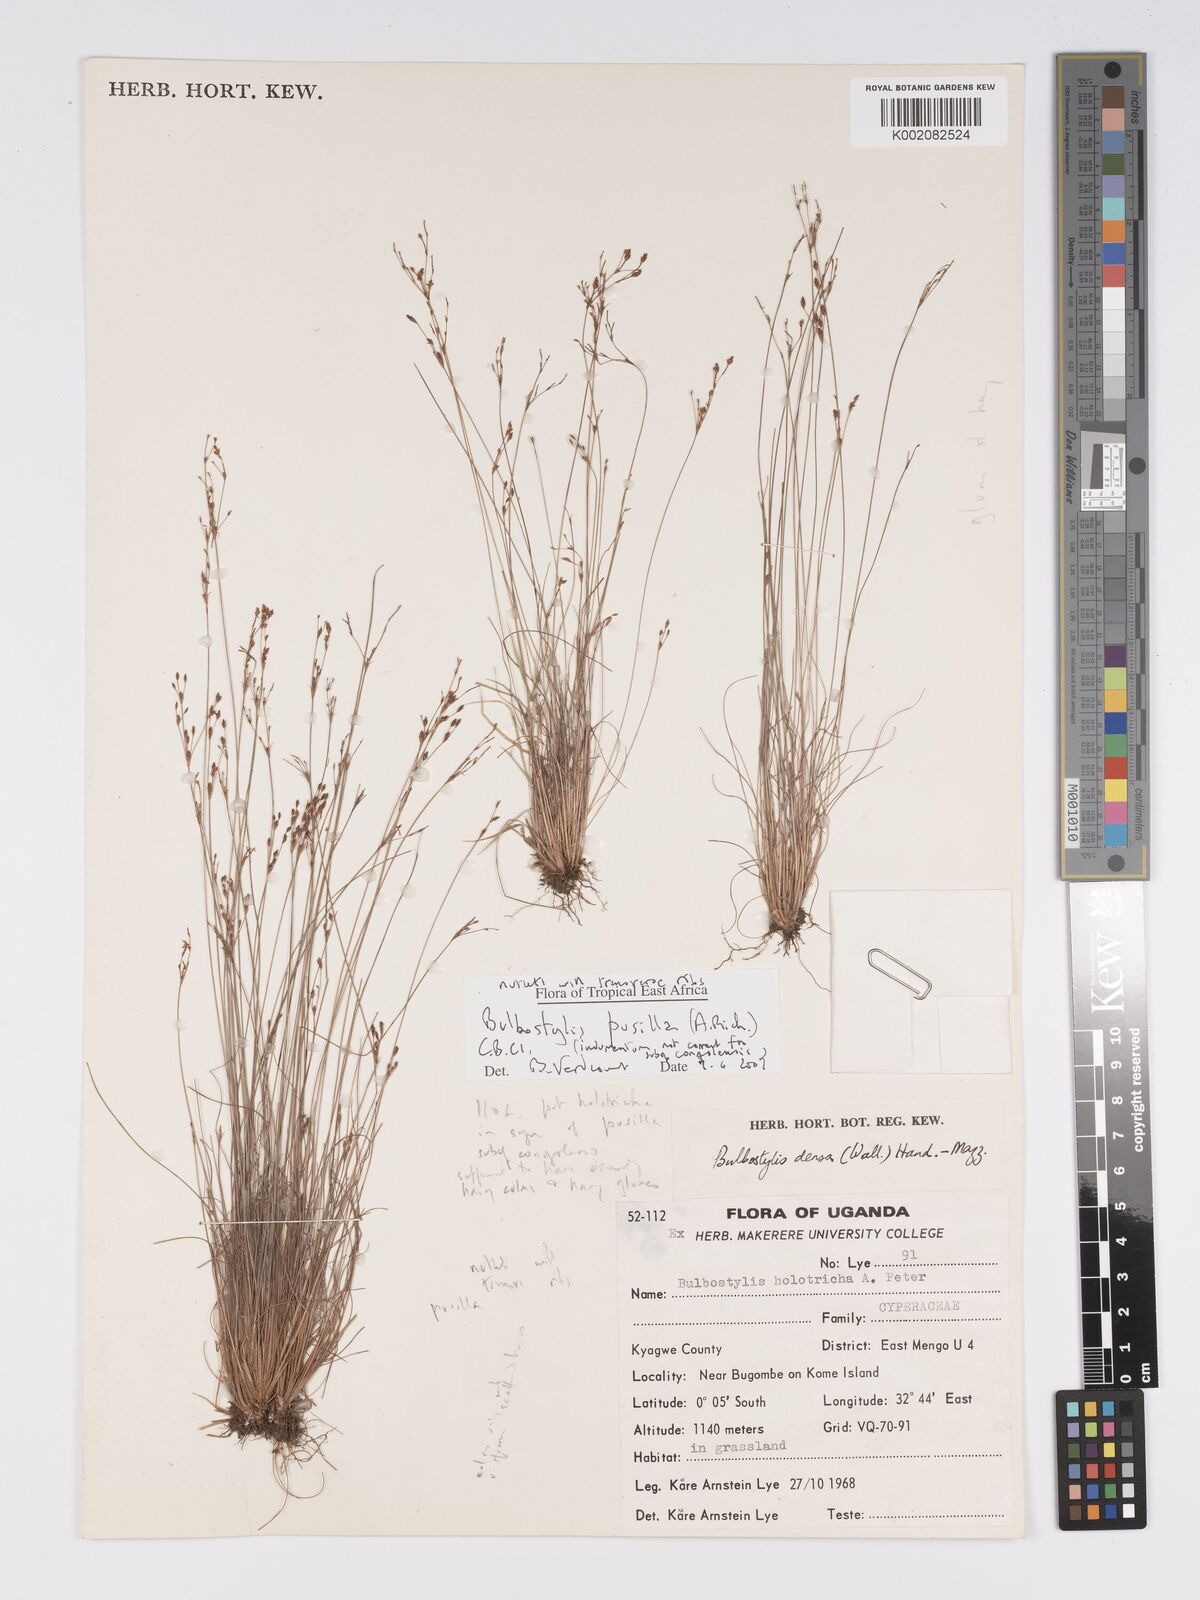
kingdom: Plantae
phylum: Tracheophyta
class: Liliopsida
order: Poales
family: Cyperaceae
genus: Bulbostylis
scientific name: Bulbostylis pusilla
